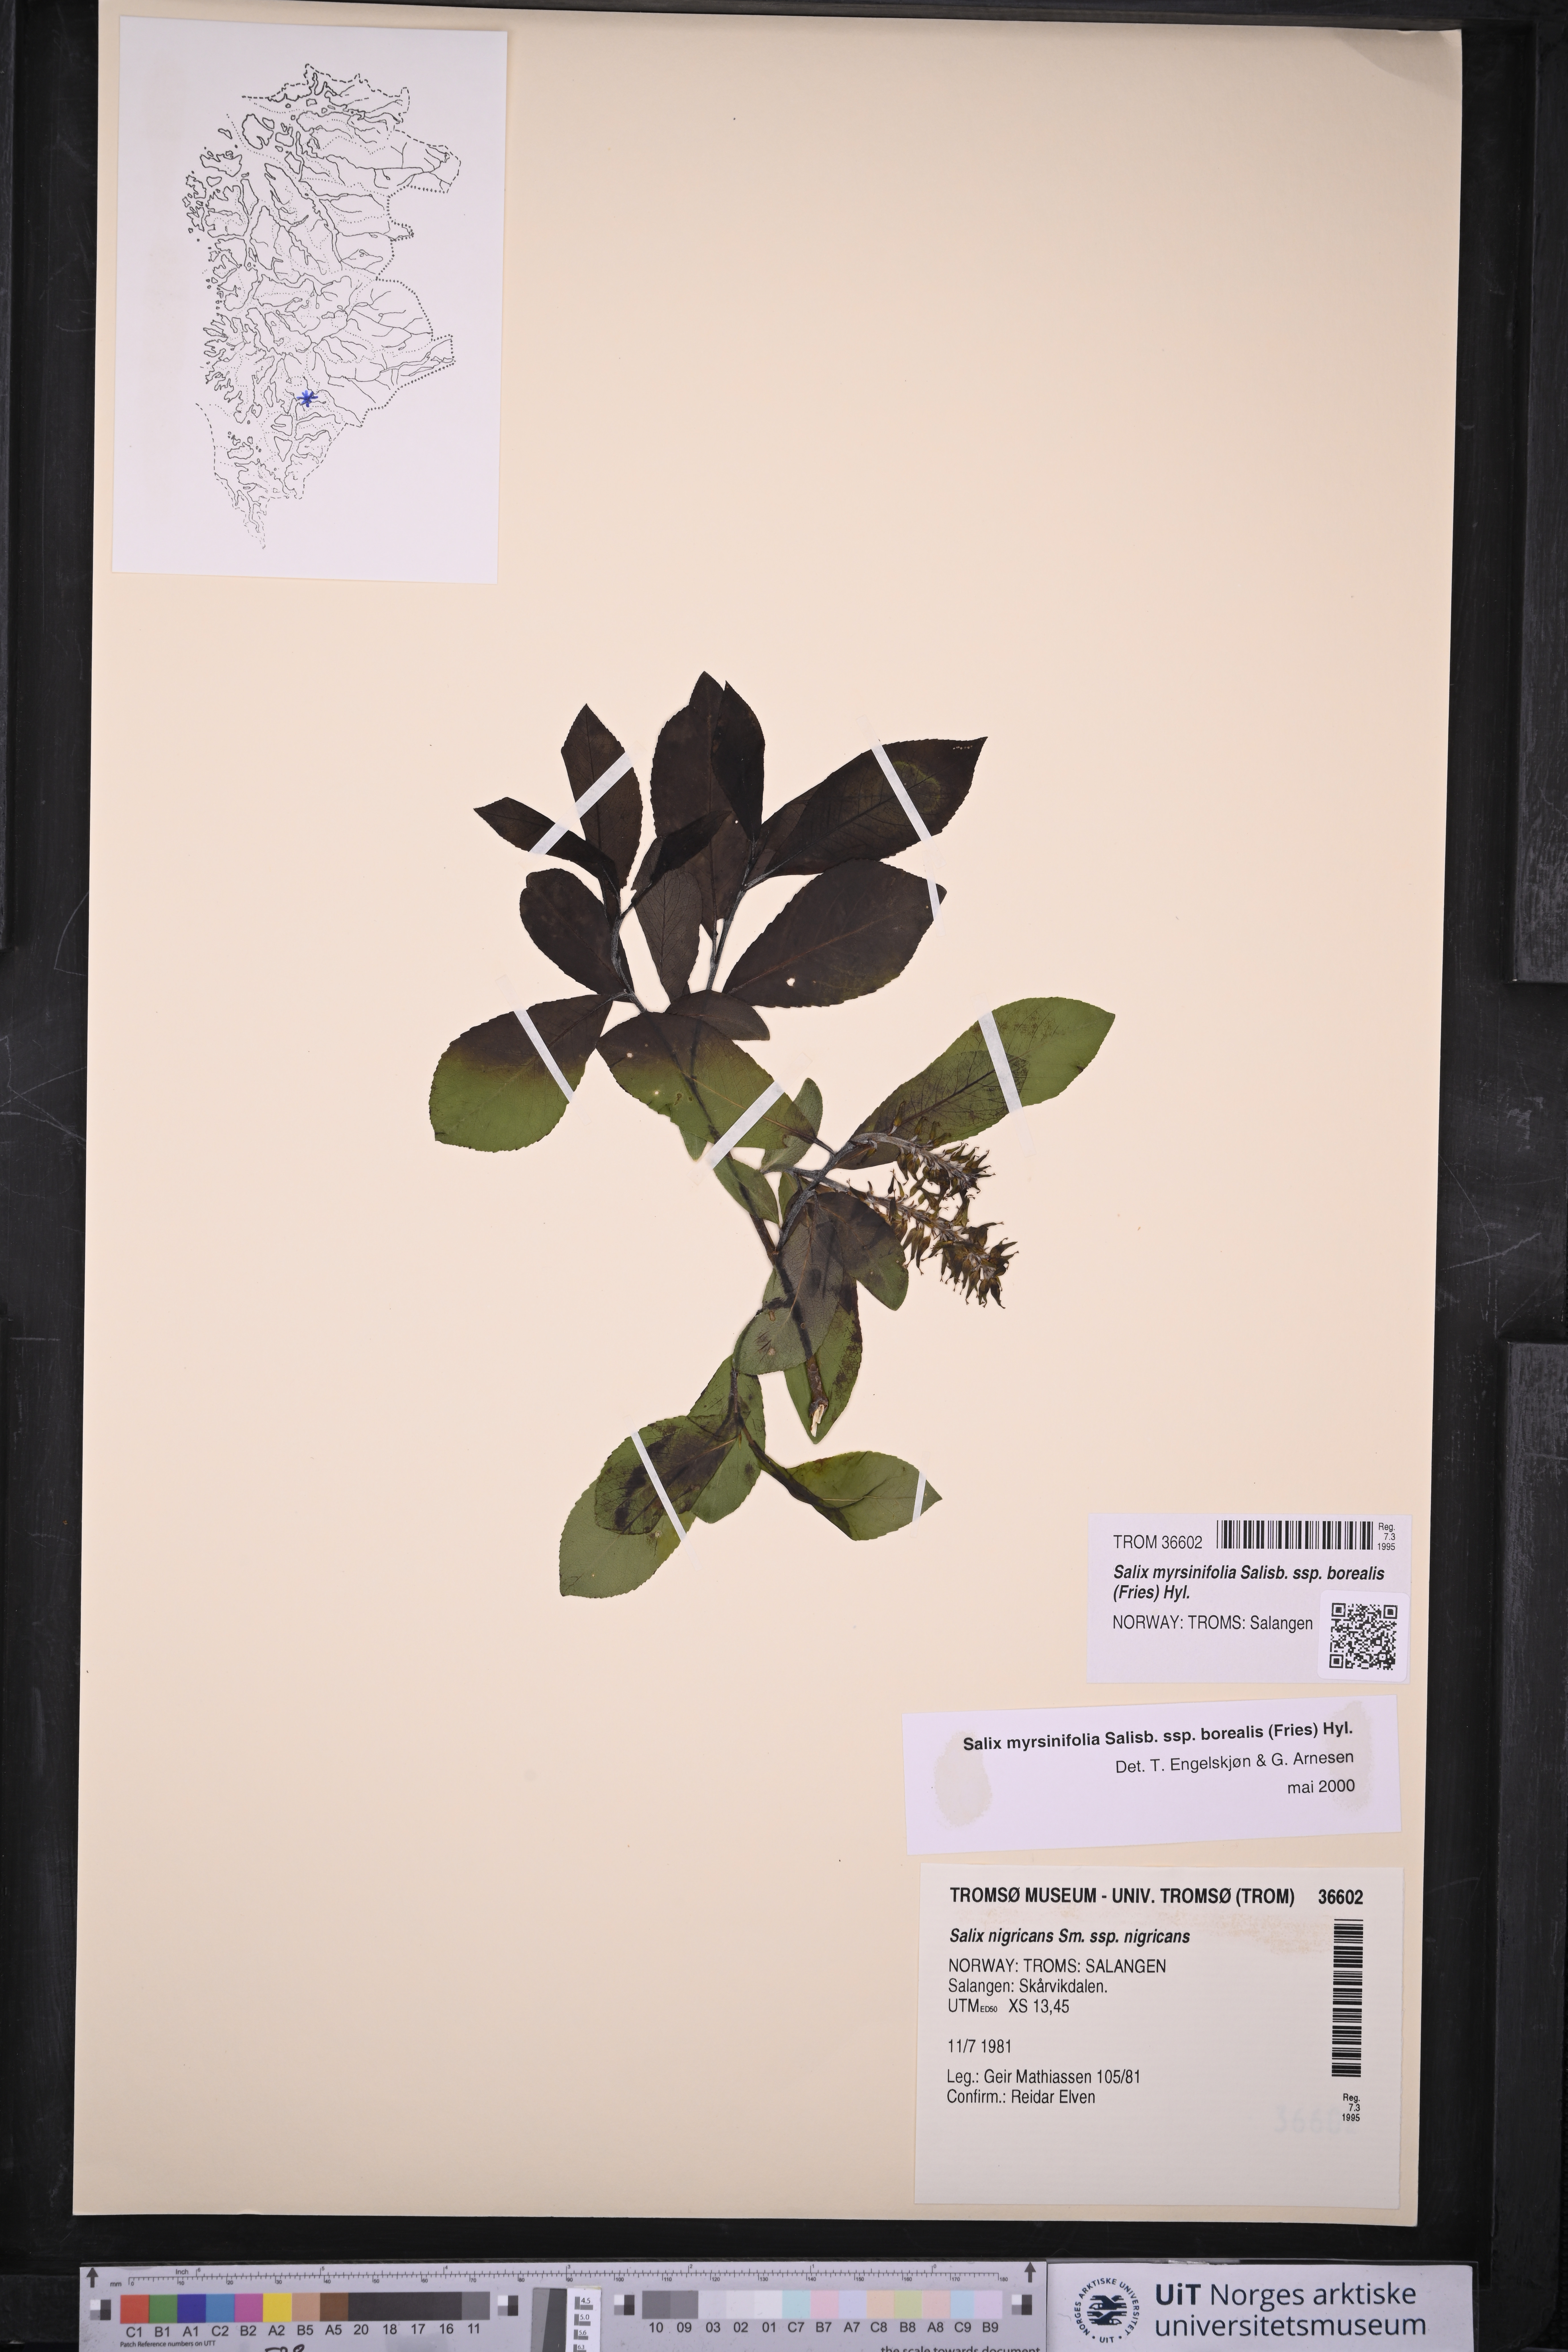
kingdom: Plantae
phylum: Tracheophyta
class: Magnoliopsida
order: Malpighiales
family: Salicaceae
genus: Salix
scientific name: Salix myrsinifolia
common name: Dark-leaved willow
